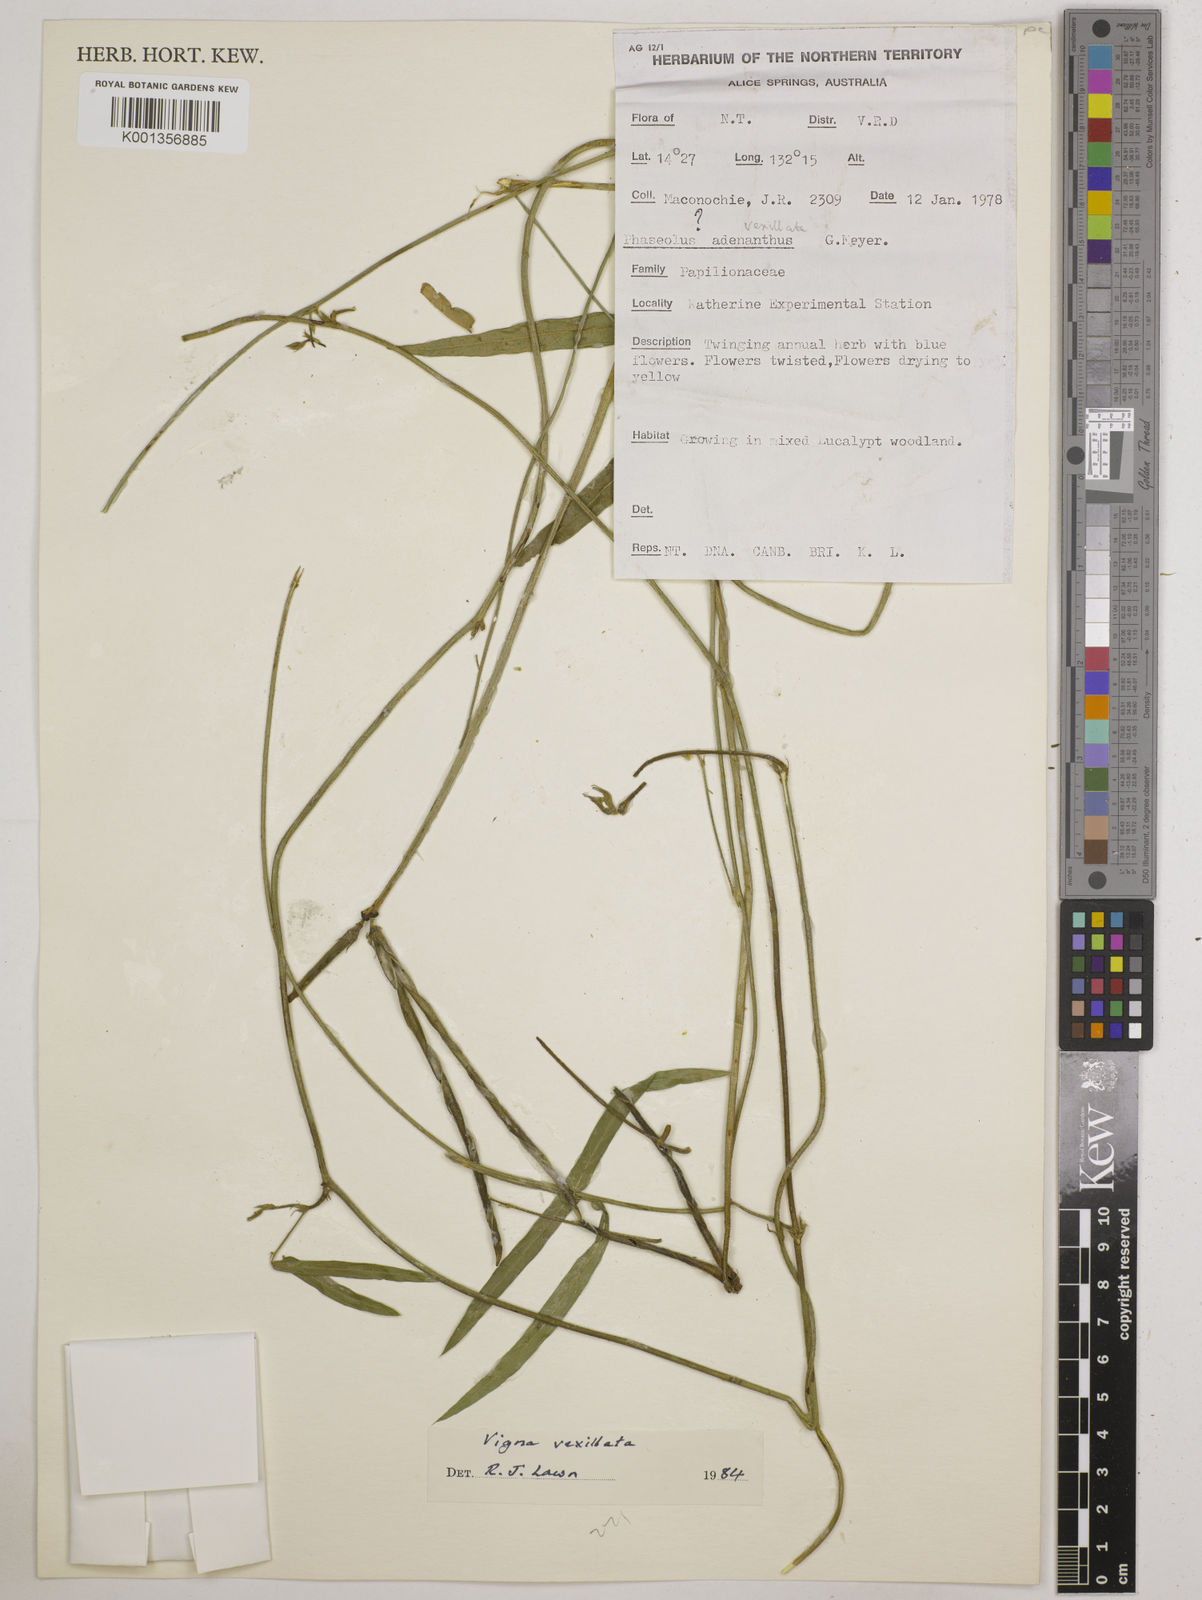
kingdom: Plantae
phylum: Tracheophyta
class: Magnoliopsida
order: Fabales
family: Fabaceae
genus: Vigna
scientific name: Vigna vexillata
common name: Zombi pea
